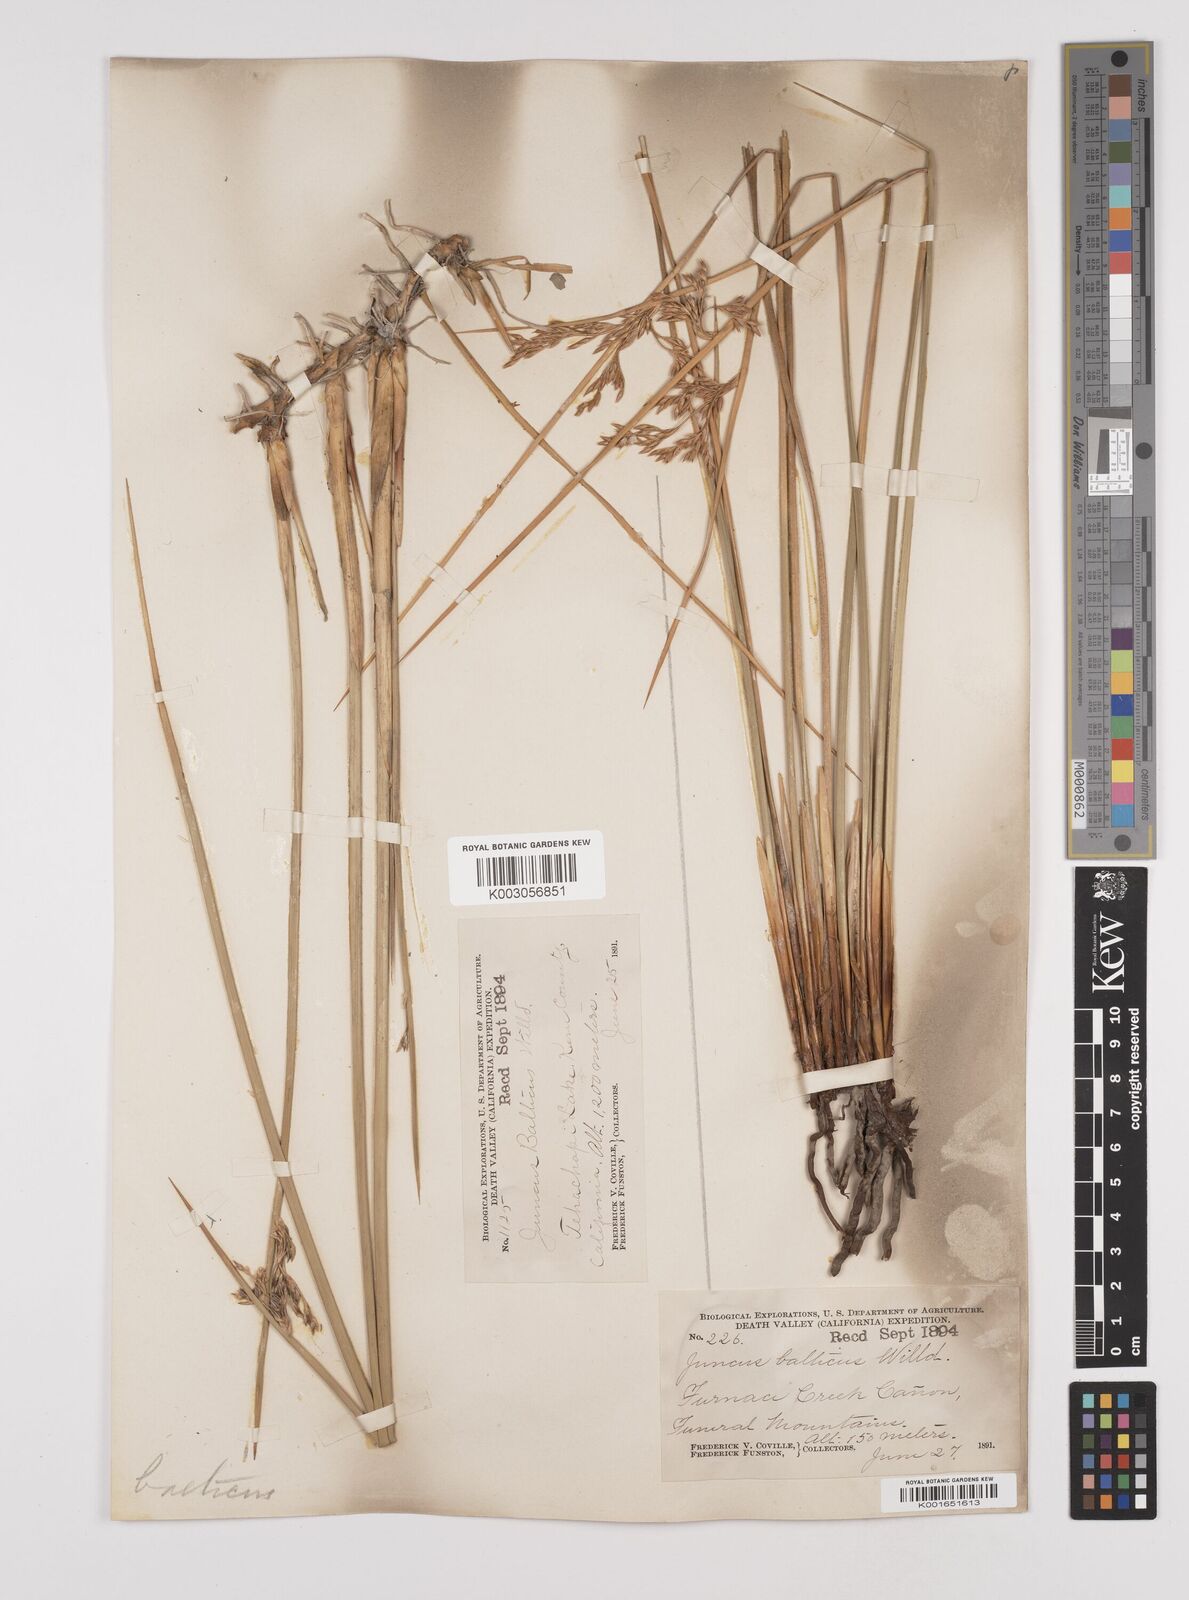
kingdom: Plantae
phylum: Tracheophyta
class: Liliopsida
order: Poales
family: Juncaceae
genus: Juncus
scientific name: Juncus balticus
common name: Baltic rush
